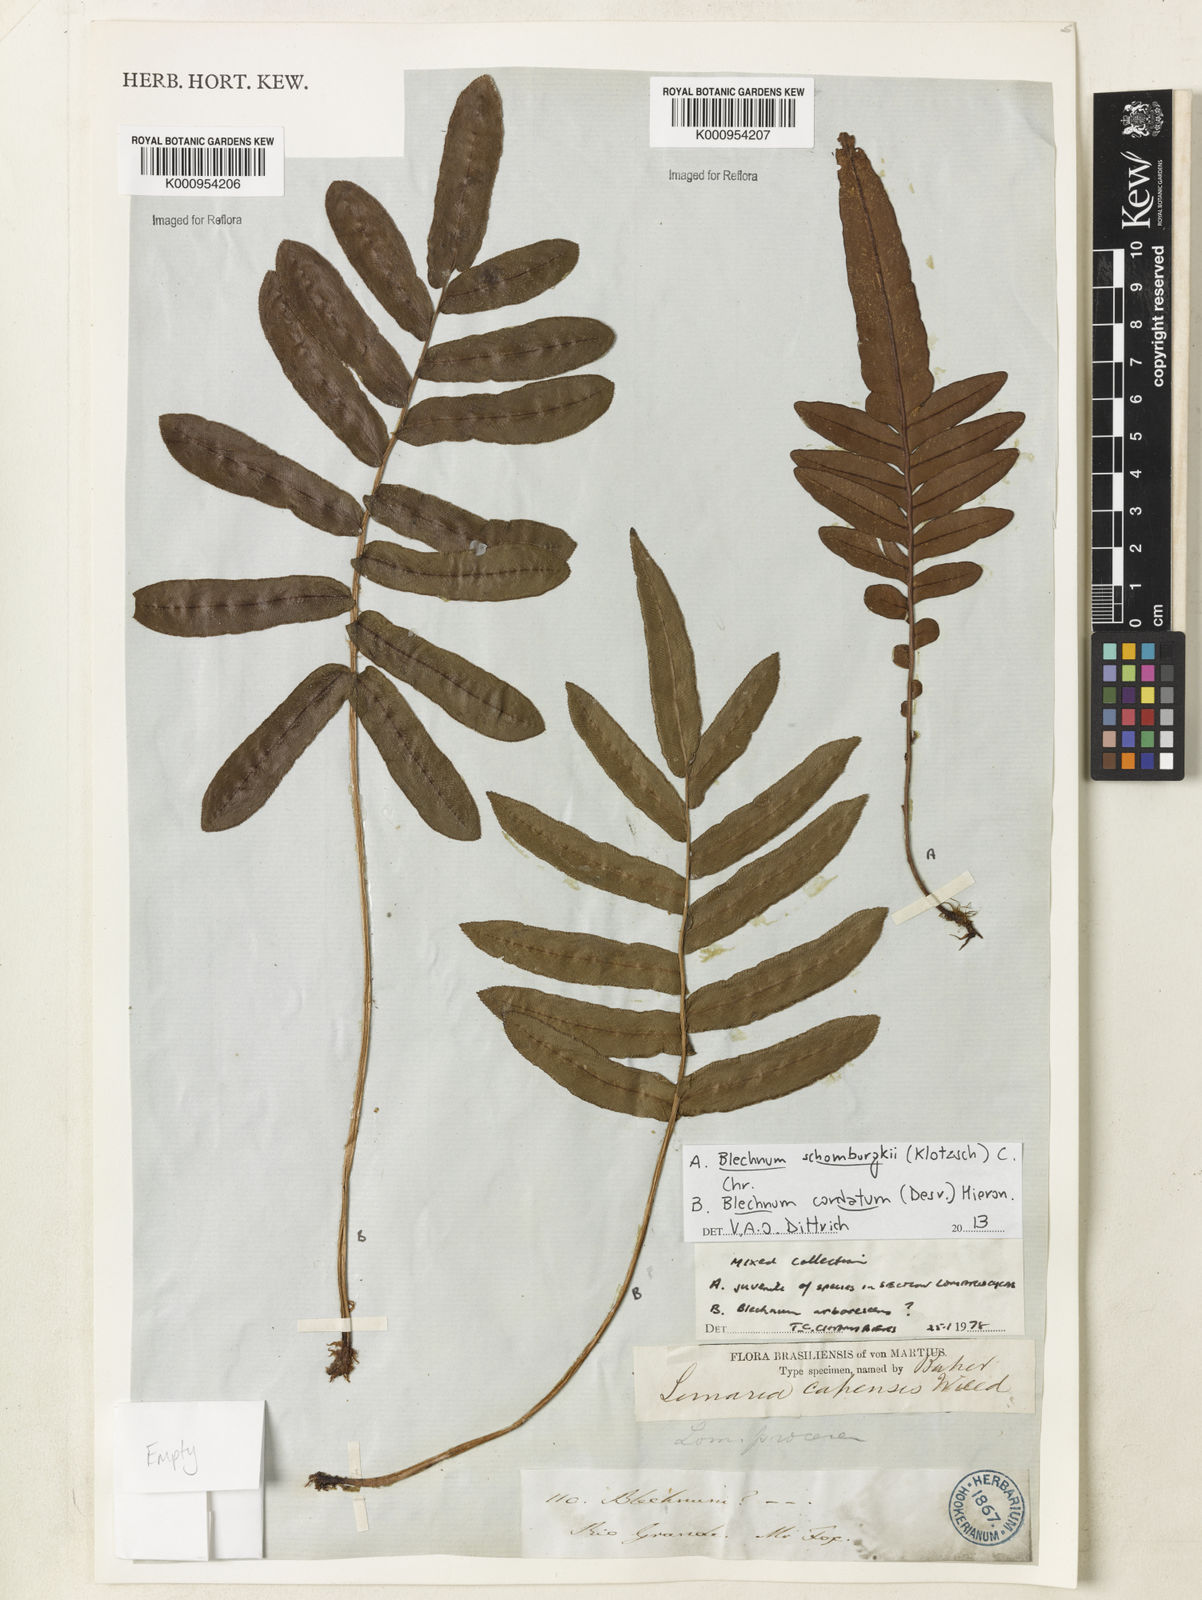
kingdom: Plantae
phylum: Tracheophyta
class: Polypodiopsida
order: Polypodiales
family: Blechnaceae
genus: Parablechnum
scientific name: Parablechnum cordatum
